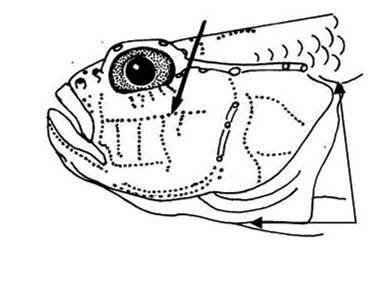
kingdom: Animalia
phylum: Chordata
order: Perciformes
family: Gobiidae
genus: Drombus
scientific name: Drombus key
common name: Key goby
